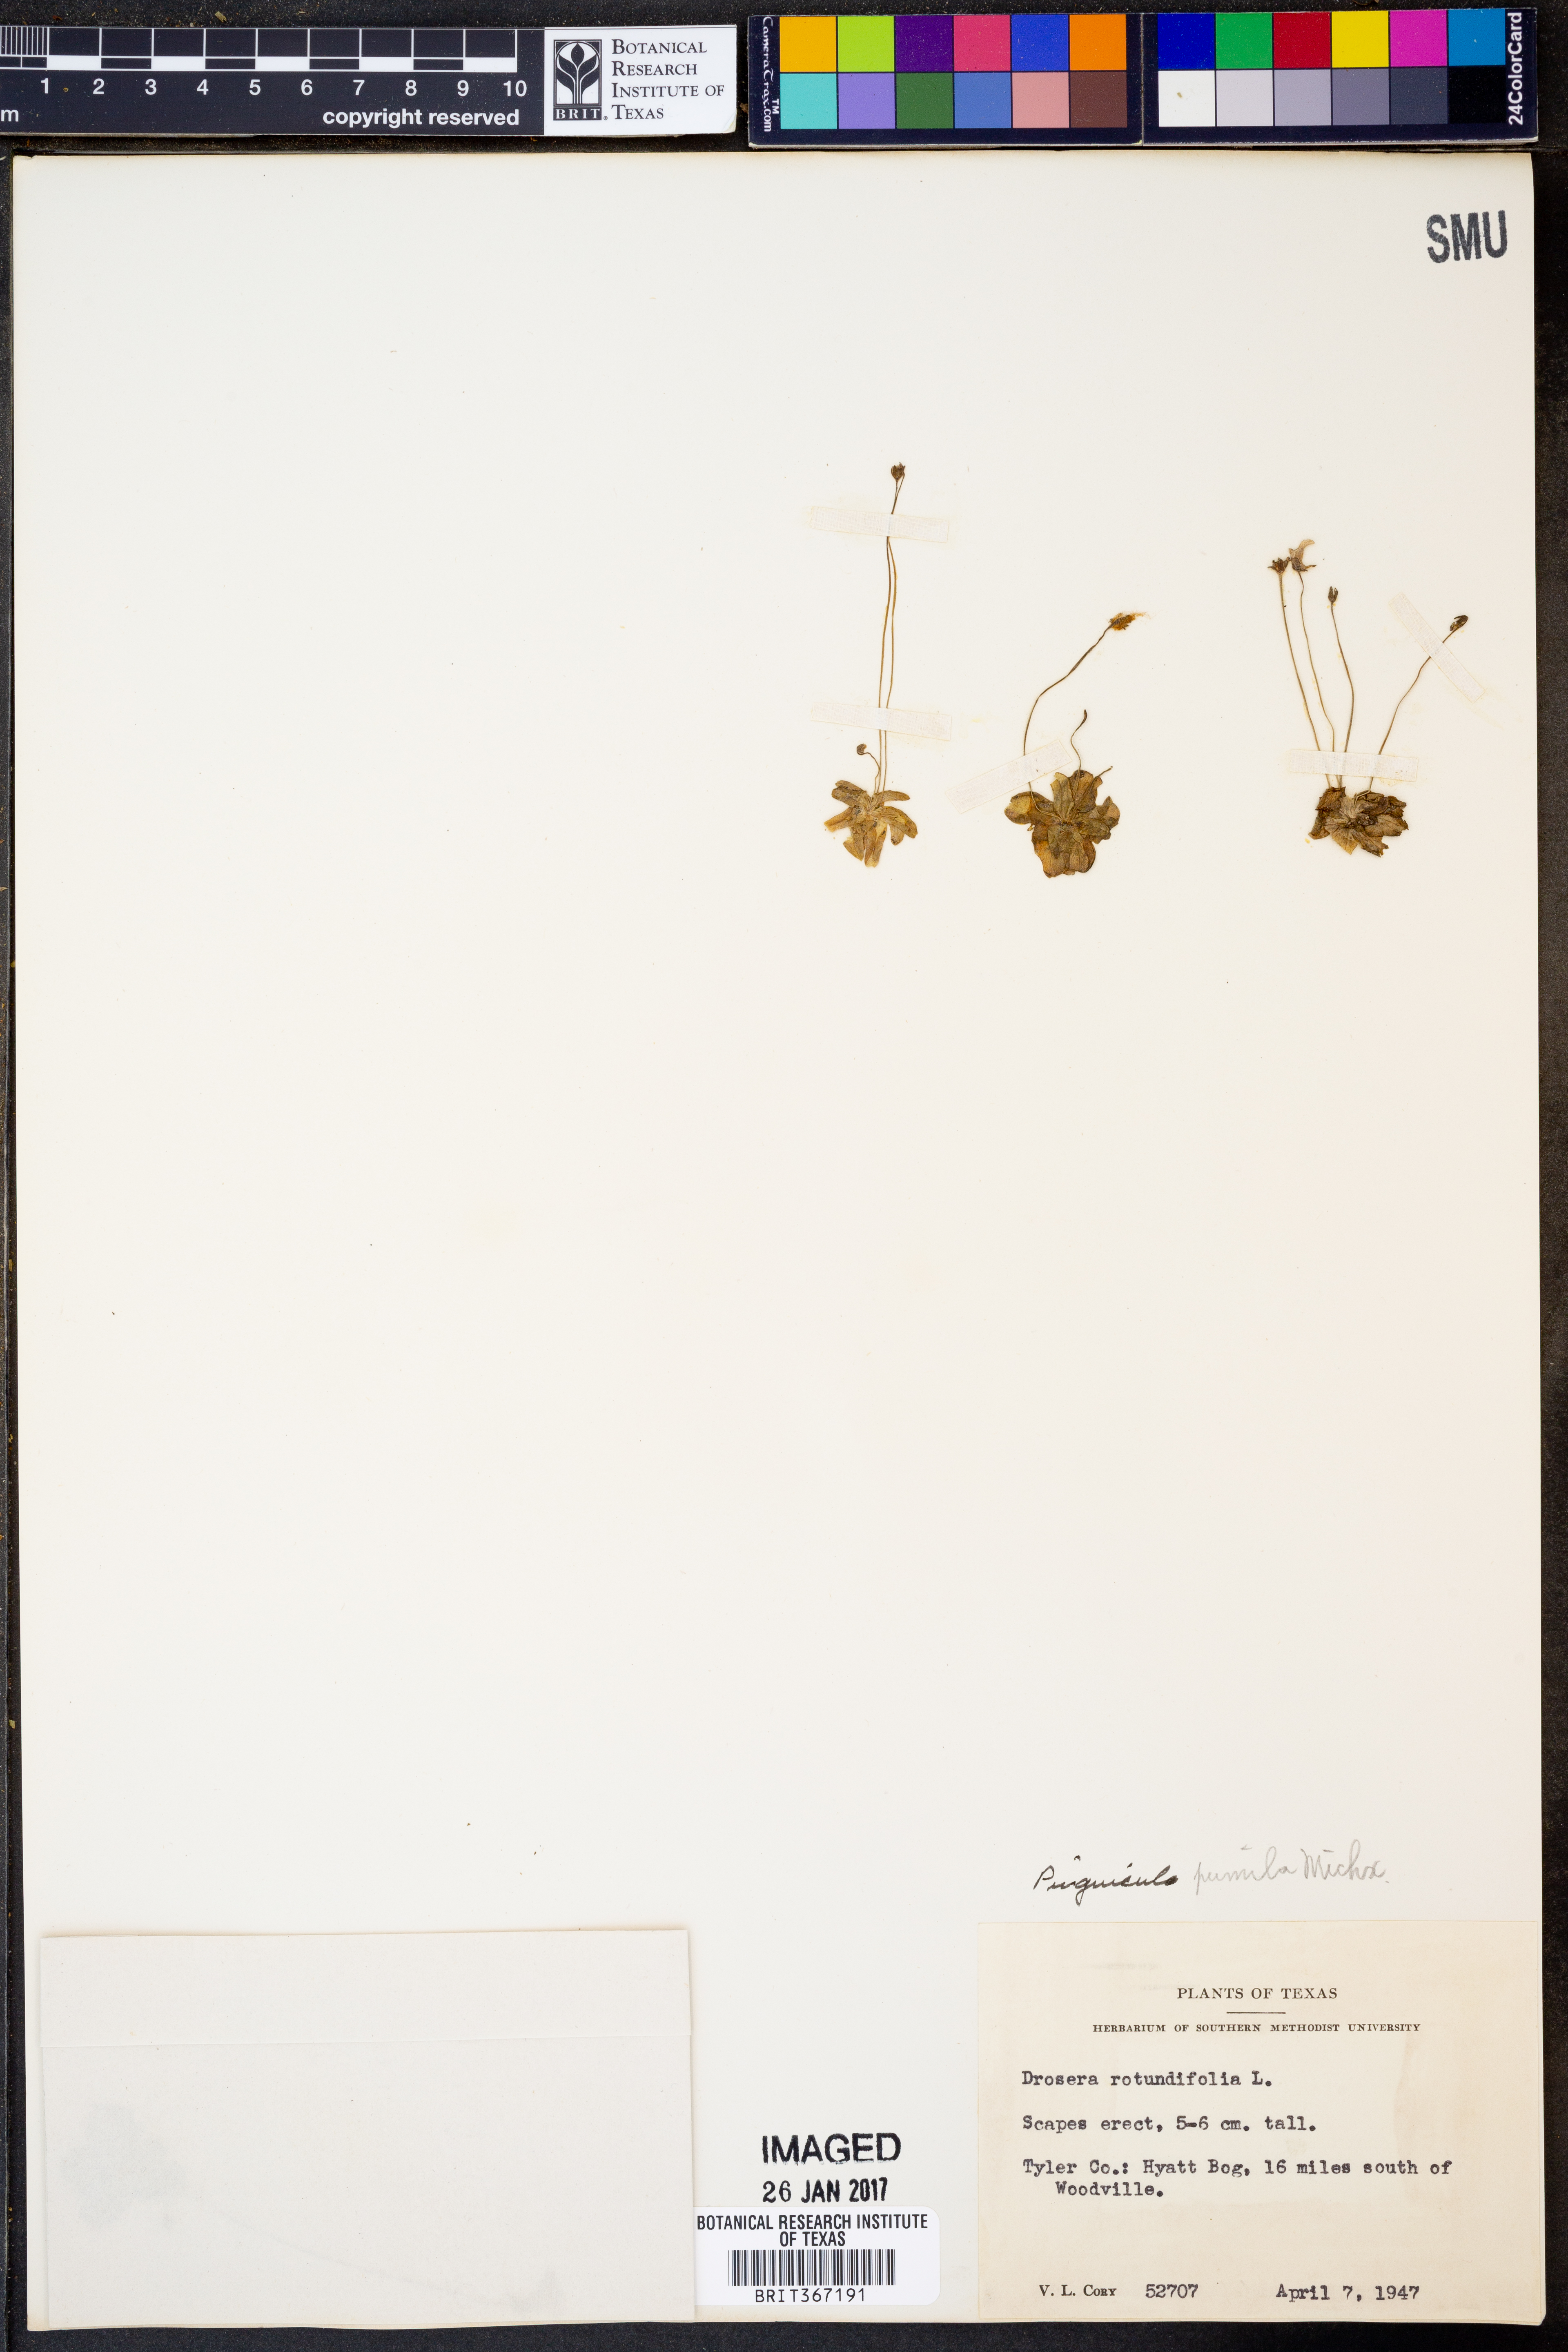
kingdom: Plantae
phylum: Tracheophyta
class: Magnoliopsida
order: Lamiales
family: Lentibulariaceae
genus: Pinguicula
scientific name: Pinguicula pumila
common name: Small butterwort
